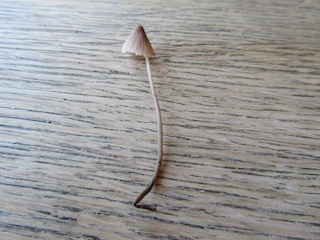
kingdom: Fungi
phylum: Basidiomycota
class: Agaricomycetes
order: Agaricales
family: Mycenaceae
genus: Mycena
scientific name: Mycena metata
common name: rødlig huesvamp
